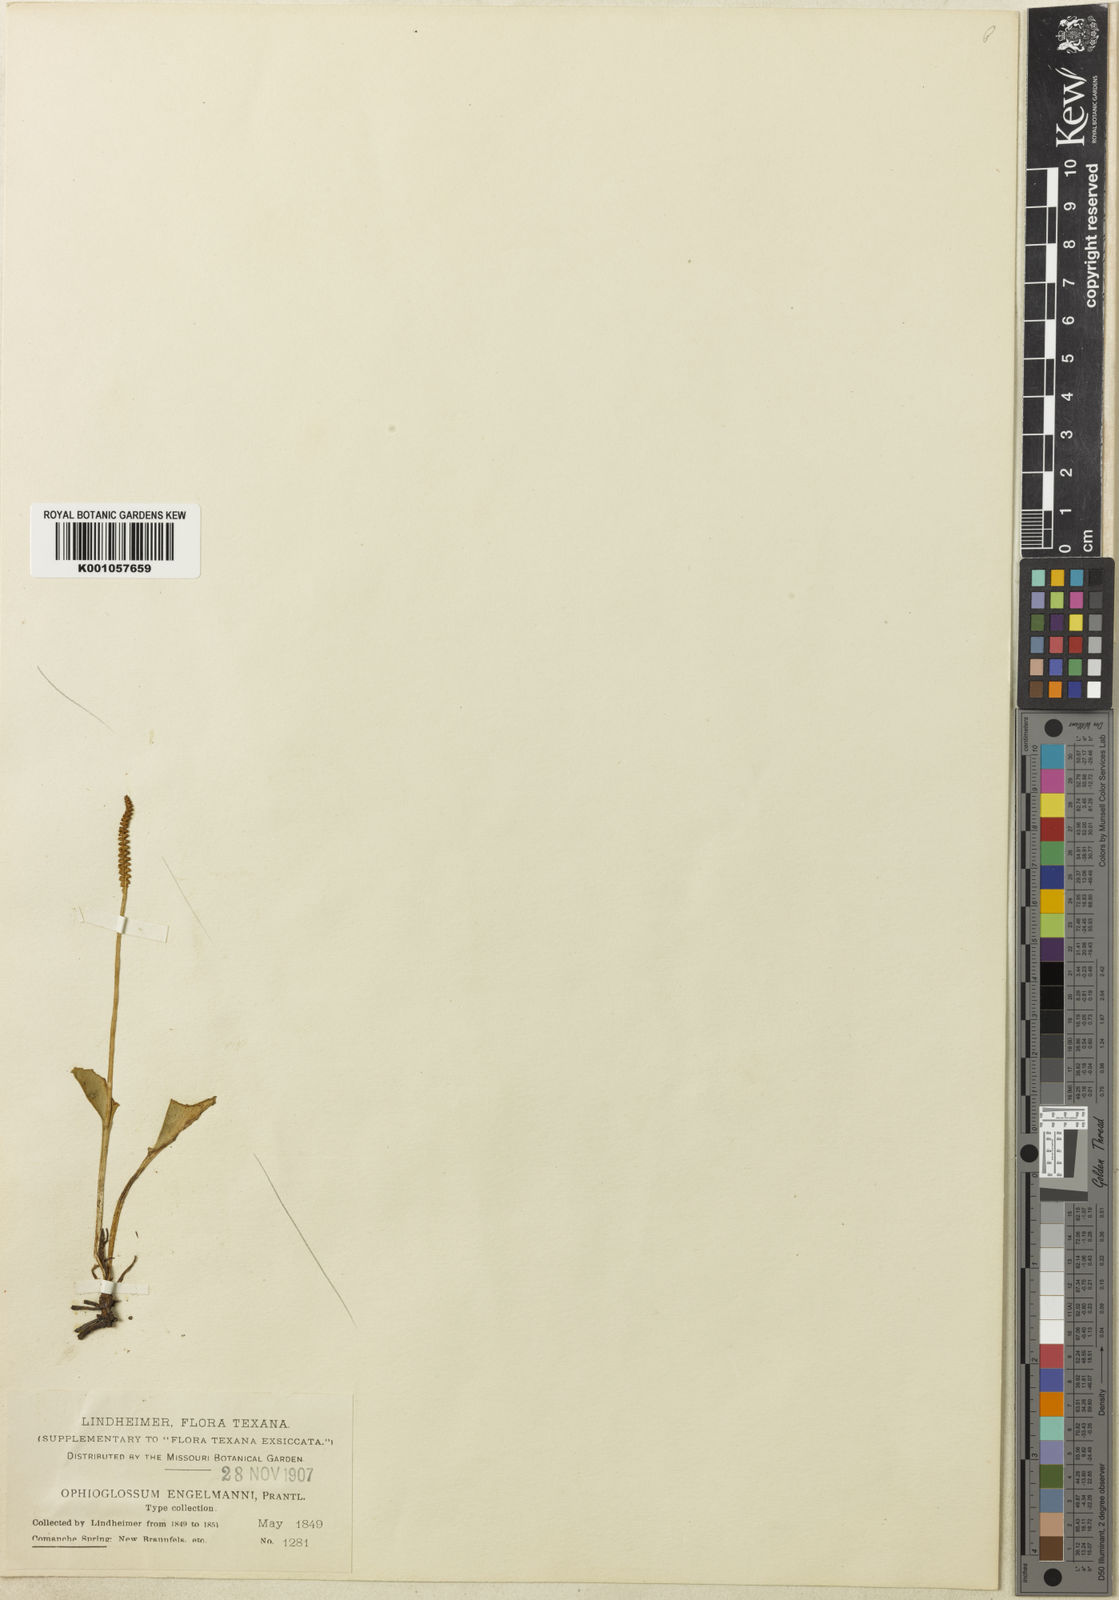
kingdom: Plantae
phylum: Tracheophyta
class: Polypodiopsida
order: Ophioglossales
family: Ophioglossaceae
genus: Ophioglossum
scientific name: Ophioglossum engelmannii
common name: Limestone adder's-tongue
